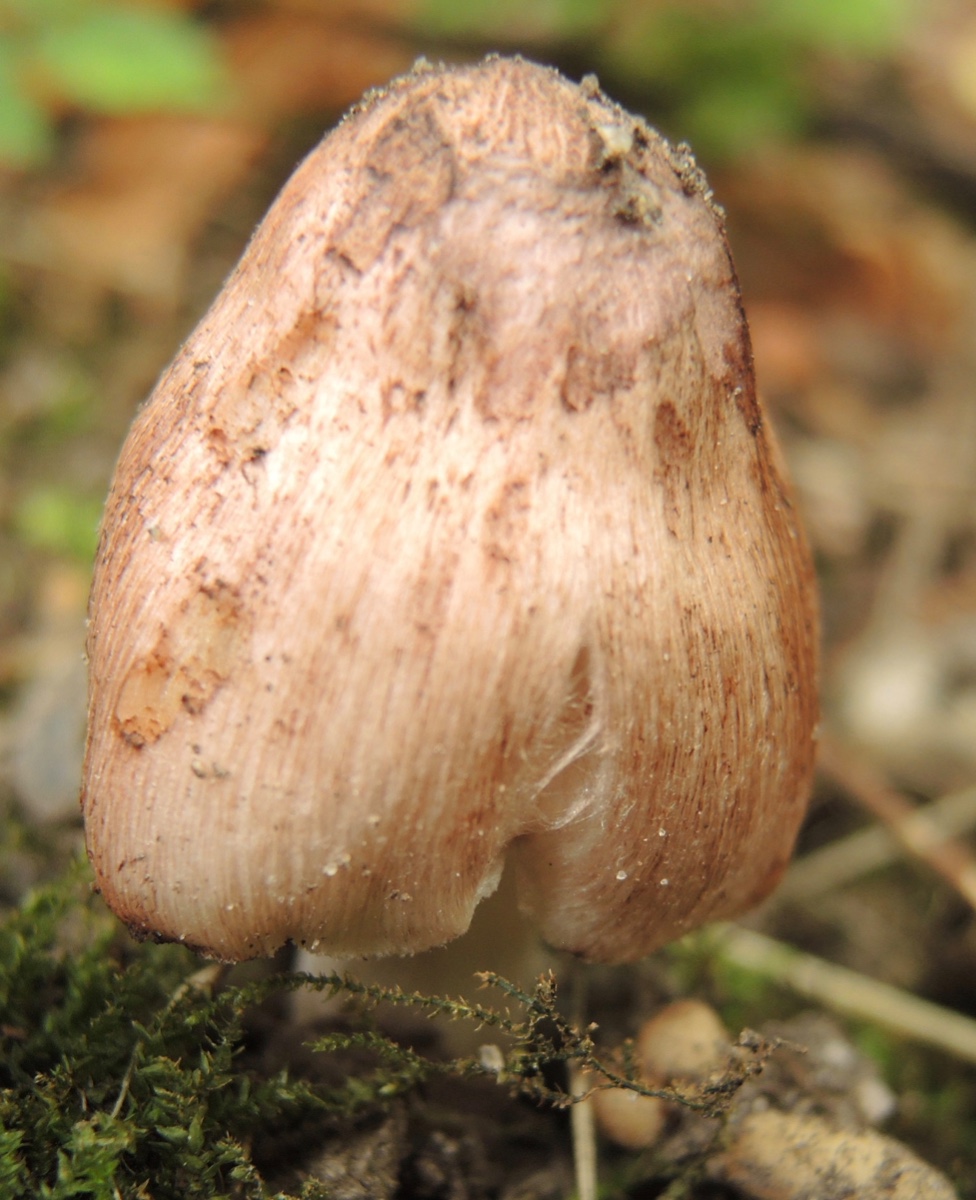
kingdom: Fungi
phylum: Basidiomycota
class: Agaricomycetes
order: Agaricales
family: Inocybaceae
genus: Inosperma
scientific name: Inosperma adaequatum
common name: vinrød trævlhat
